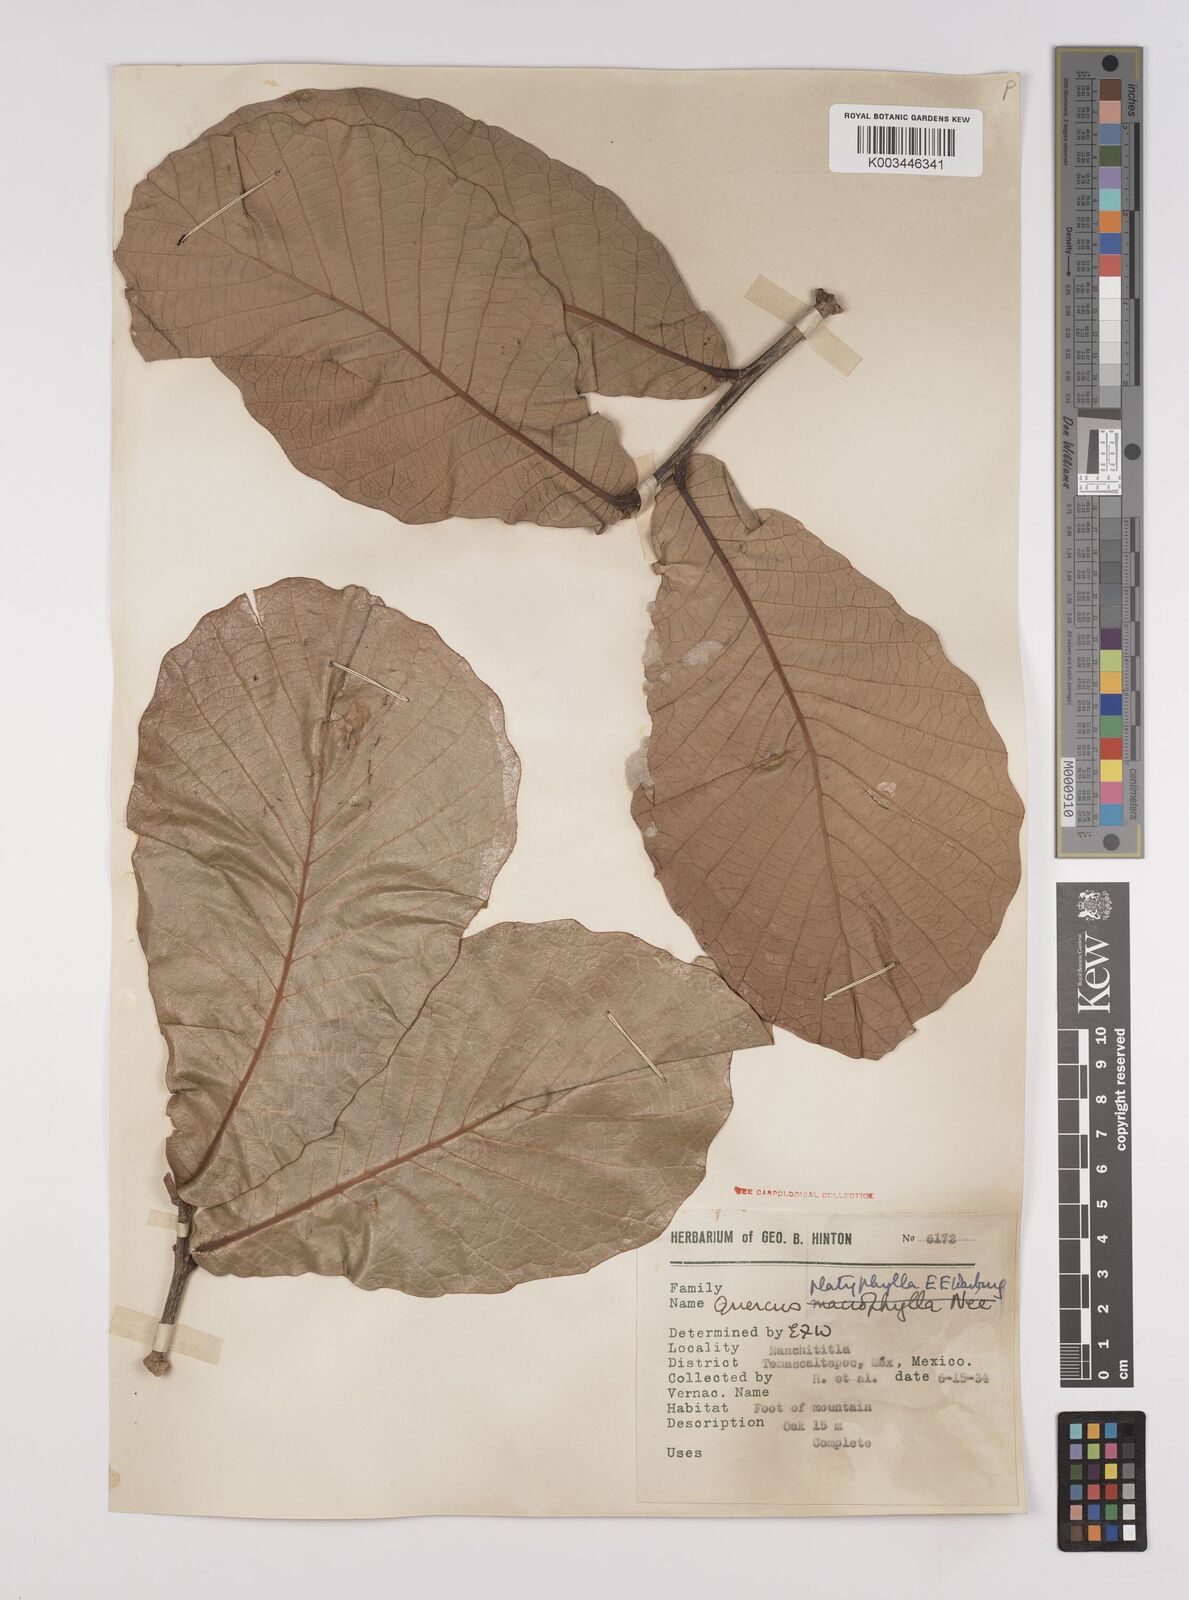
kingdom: Plantae
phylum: Tracheophyta
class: Magnoliopsida
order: Fagales
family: Fagaceae
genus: Quercus
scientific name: Quercus
